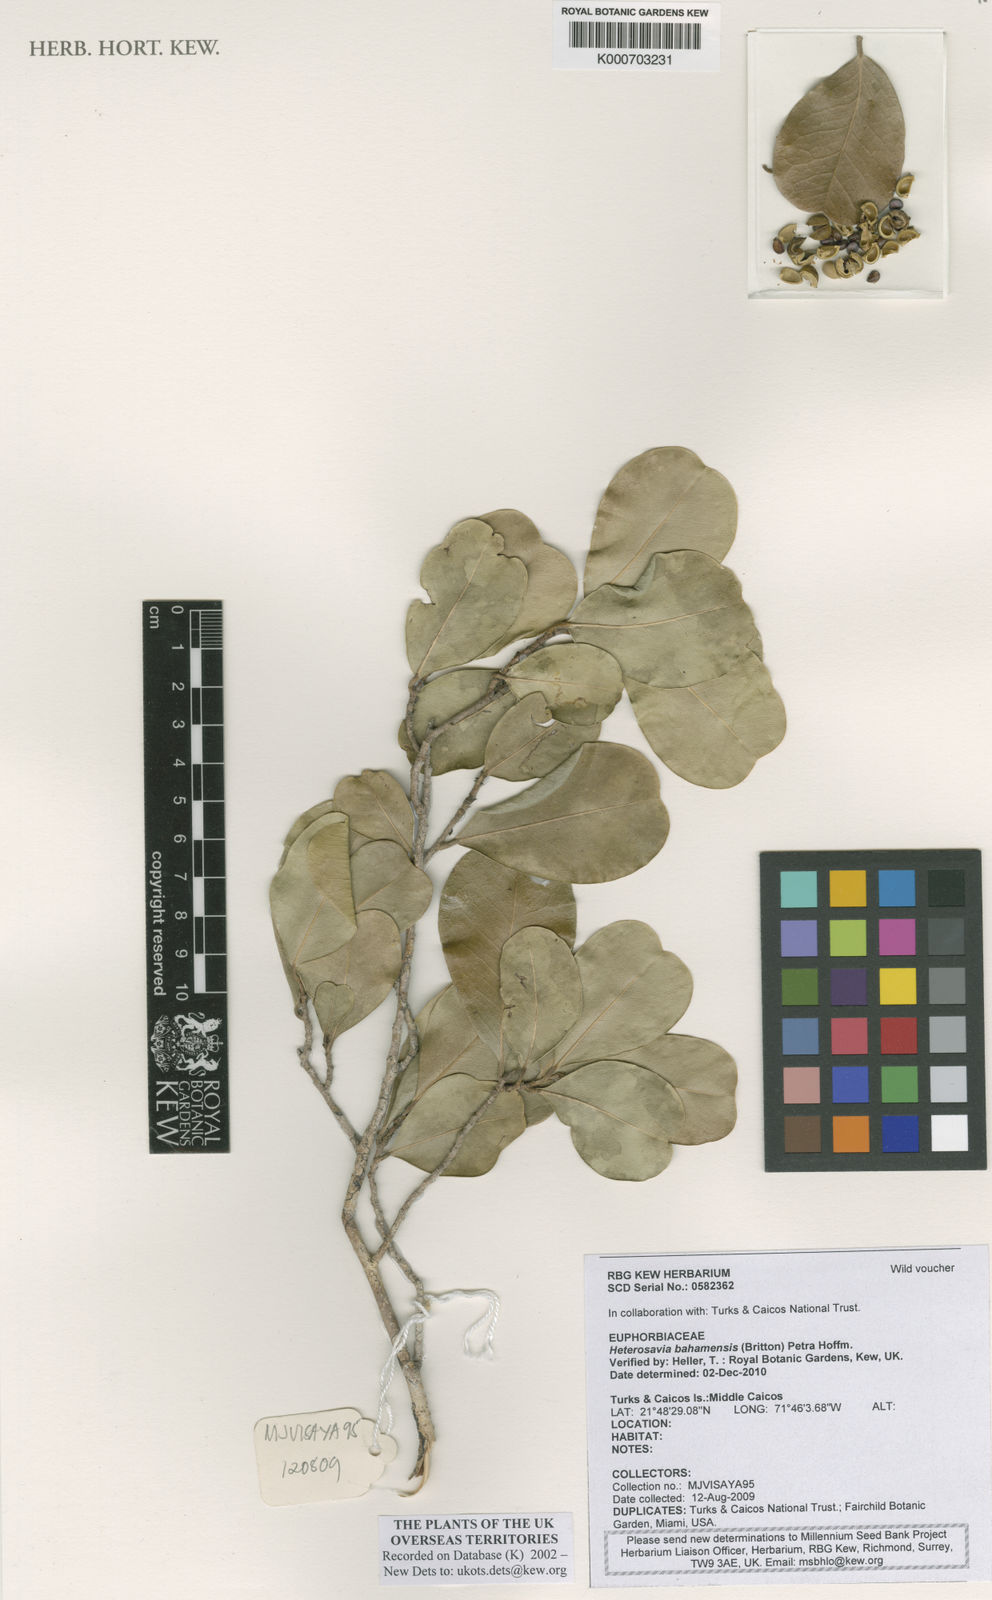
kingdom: Plantae
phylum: Tracheophyta
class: Magnoliopsida
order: Malpighiales
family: Phyllanthaceae
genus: Heterosavia
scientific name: Heterosavia bahamensis
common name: Bahama maidenbush
